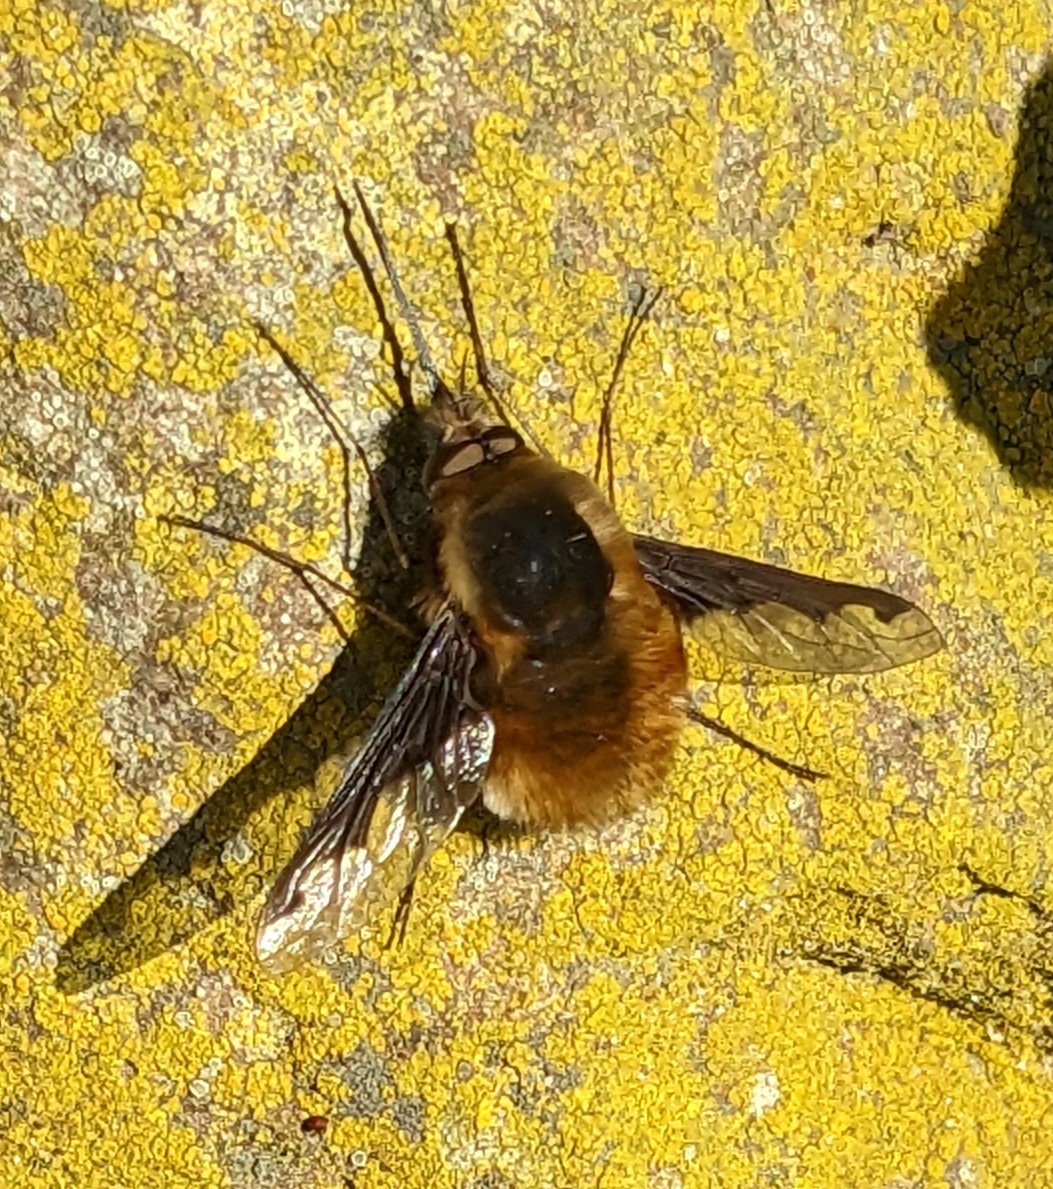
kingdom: Animalia
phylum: Arthropoda
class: Insecta
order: Diptera
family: Bombyliidae
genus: Bombylius
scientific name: Bombylius major
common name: Stor humleflue
